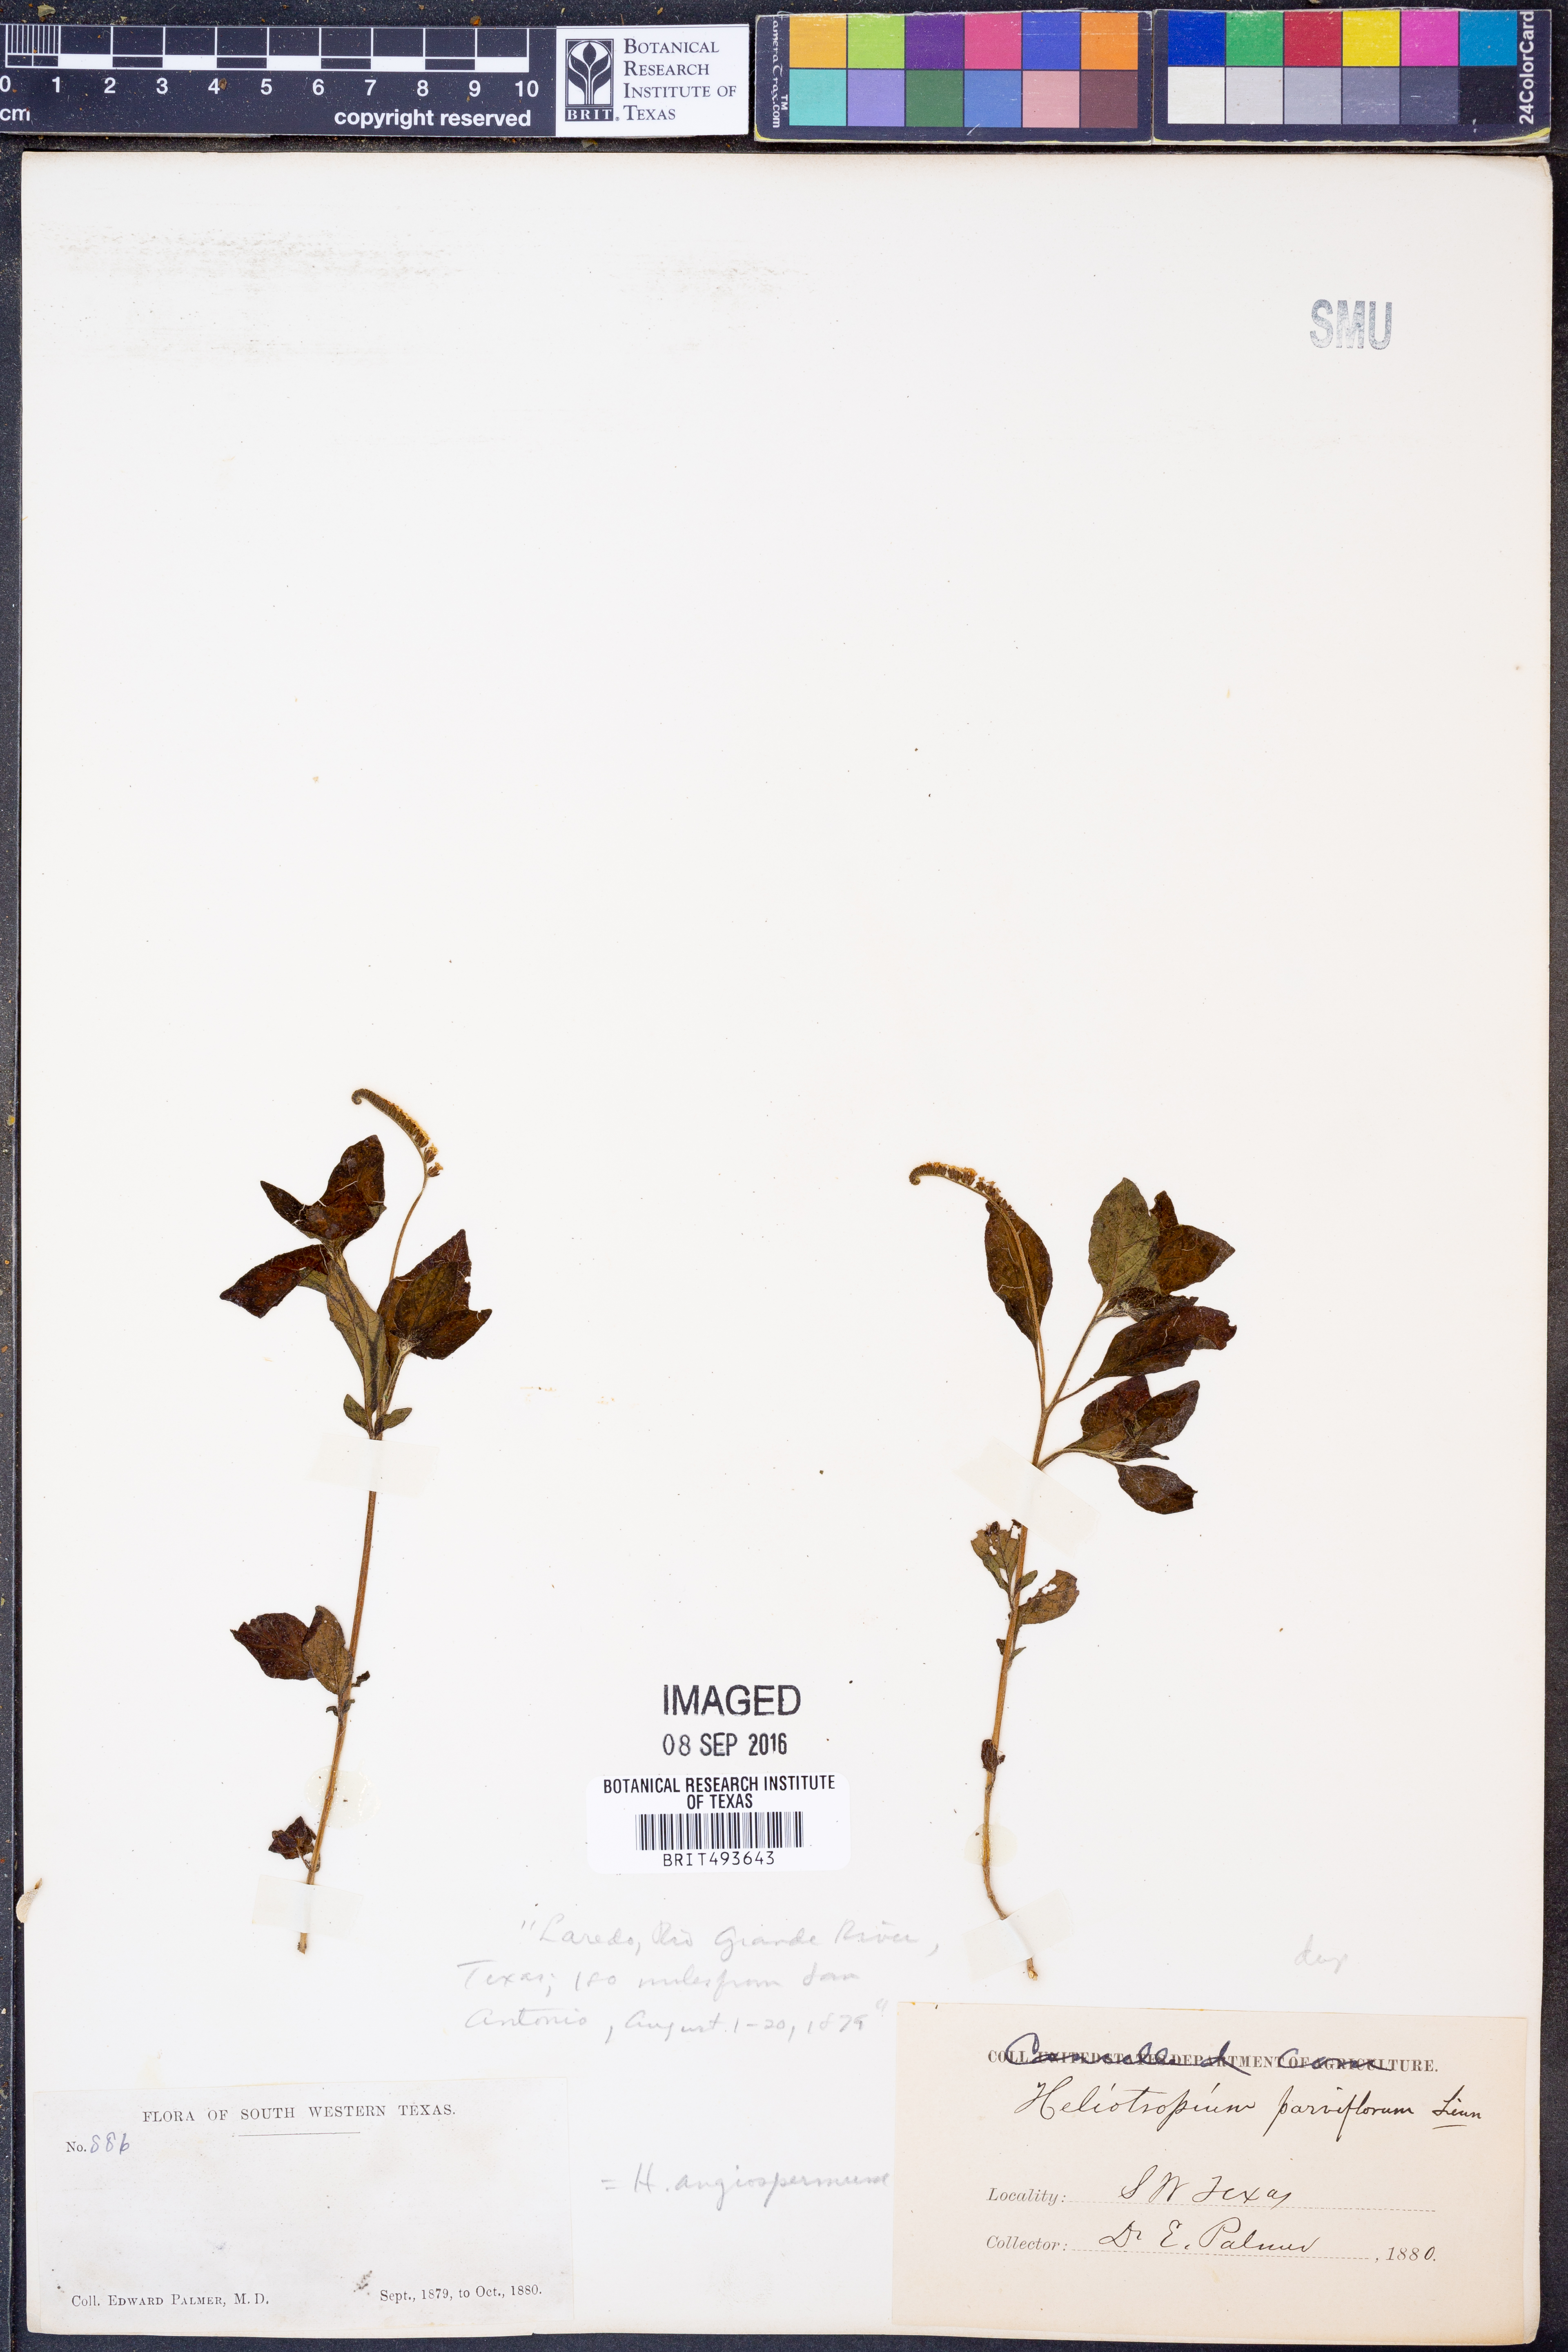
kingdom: Plantae
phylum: Tracheophyta
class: Magnoliopsida
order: Boraginales
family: Heliotropiaceae
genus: Heliotropium
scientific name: Heliotropium angiospermum
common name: Eye bright
